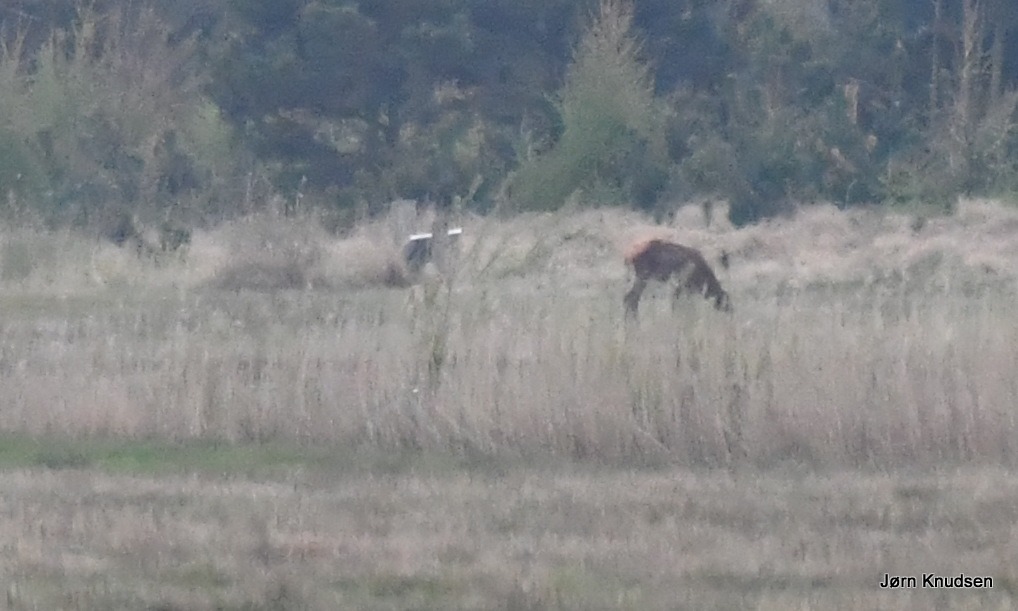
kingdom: Animalia
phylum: Chordata
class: Mammalia
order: Artiodactyla
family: Cervidae
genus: Cervus
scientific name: Cervus elaphus
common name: Krondyr
